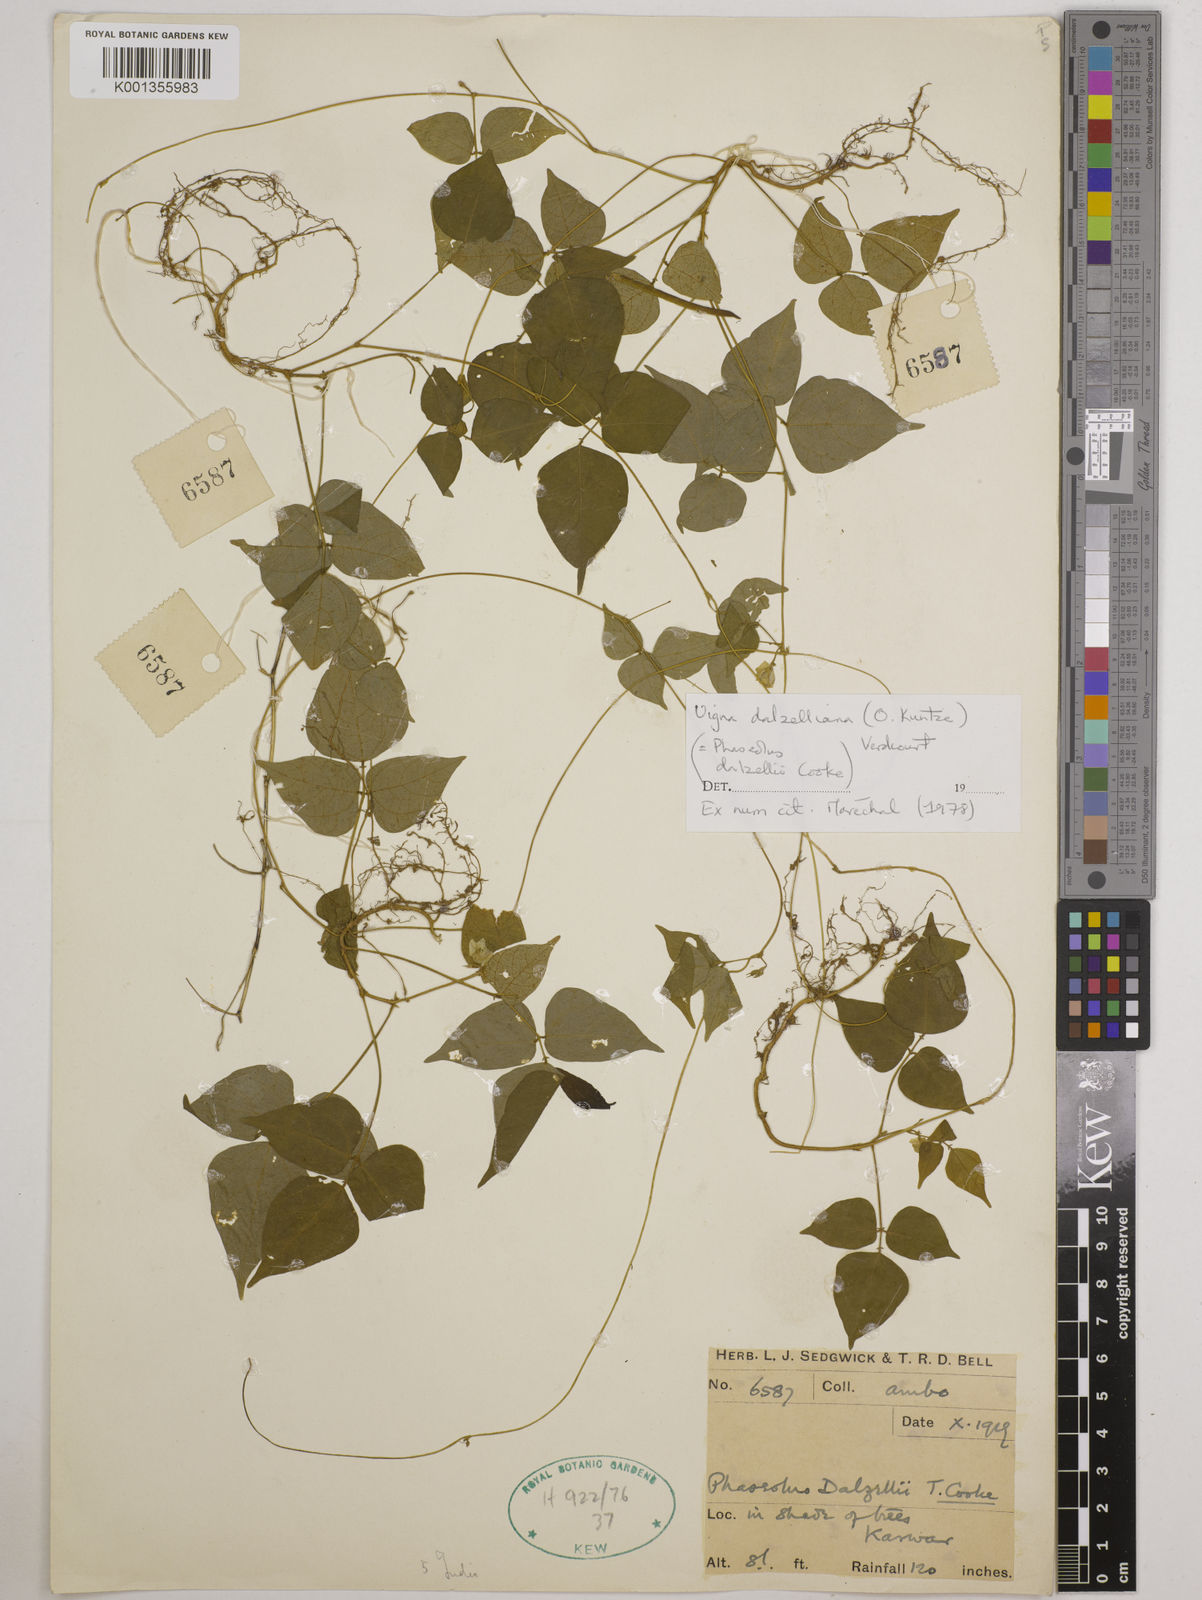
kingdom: Plantae
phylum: Tracheophyta
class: Magnoliopsida
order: Fabales
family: Fabaceae
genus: Vigna
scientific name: Vigna dalzelliana
